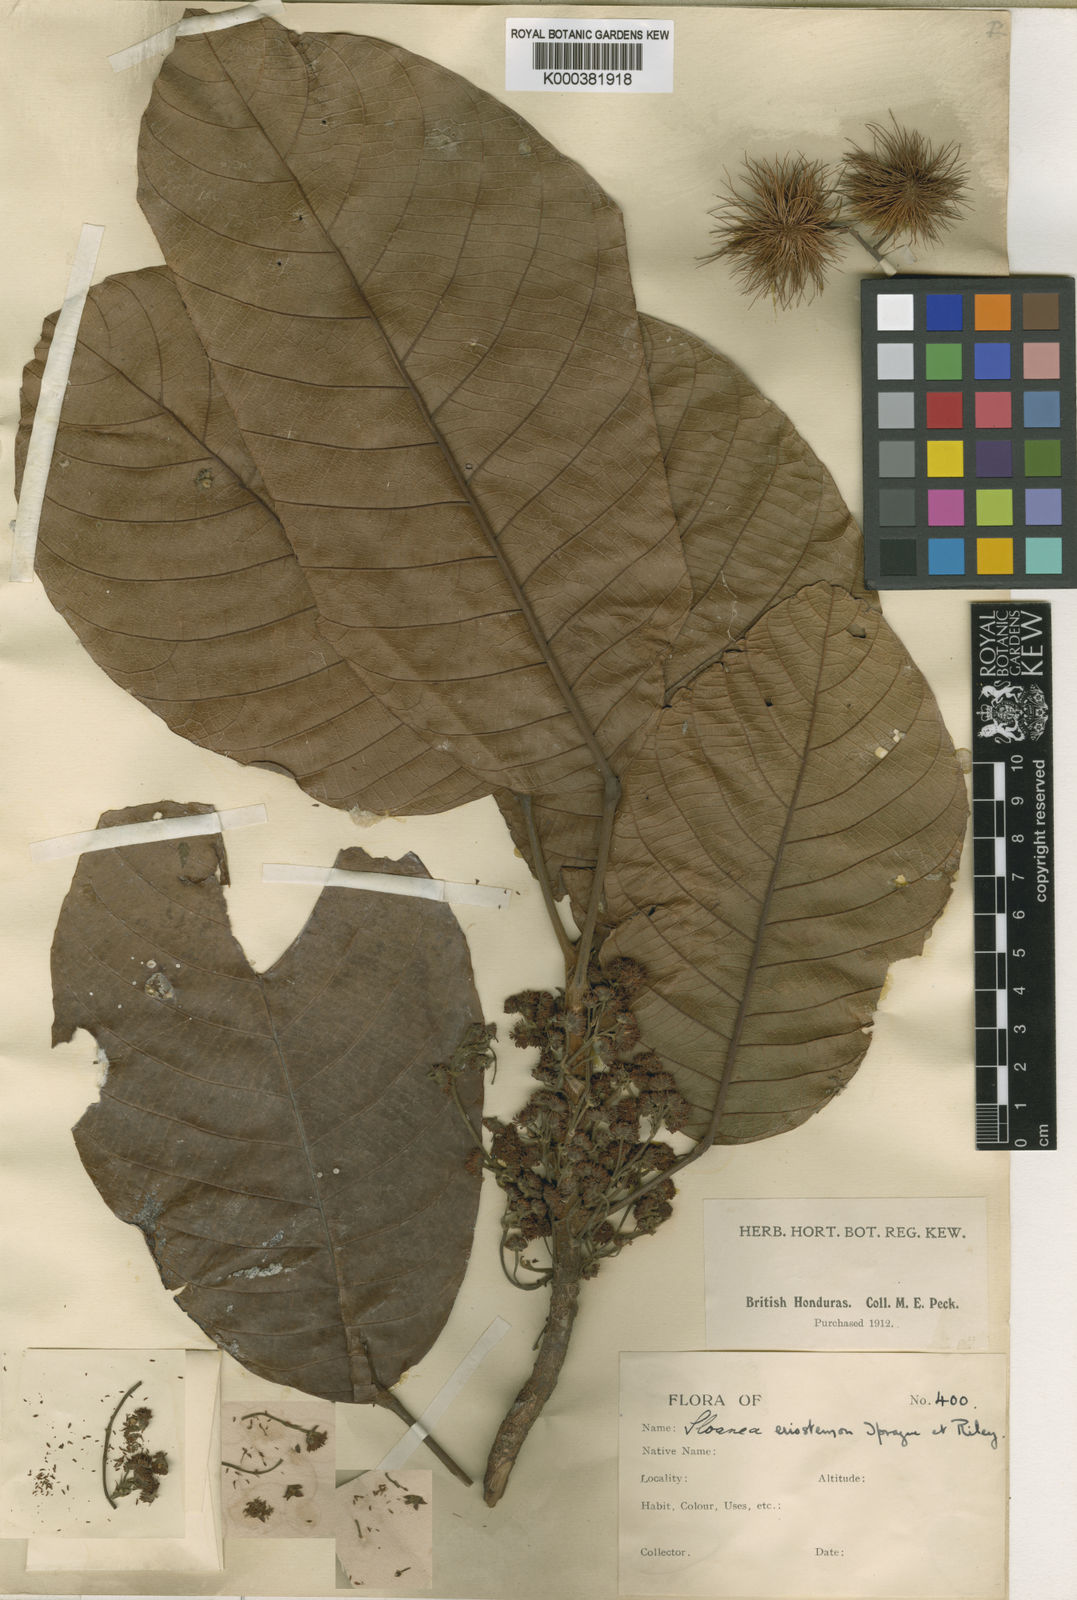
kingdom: Plantae
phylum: Tracheophyta
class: Magnoliopsida
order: Oxalidales
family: Elaeocarpaceae
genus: Sloanea
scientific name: Sloanea tuerckheimii
